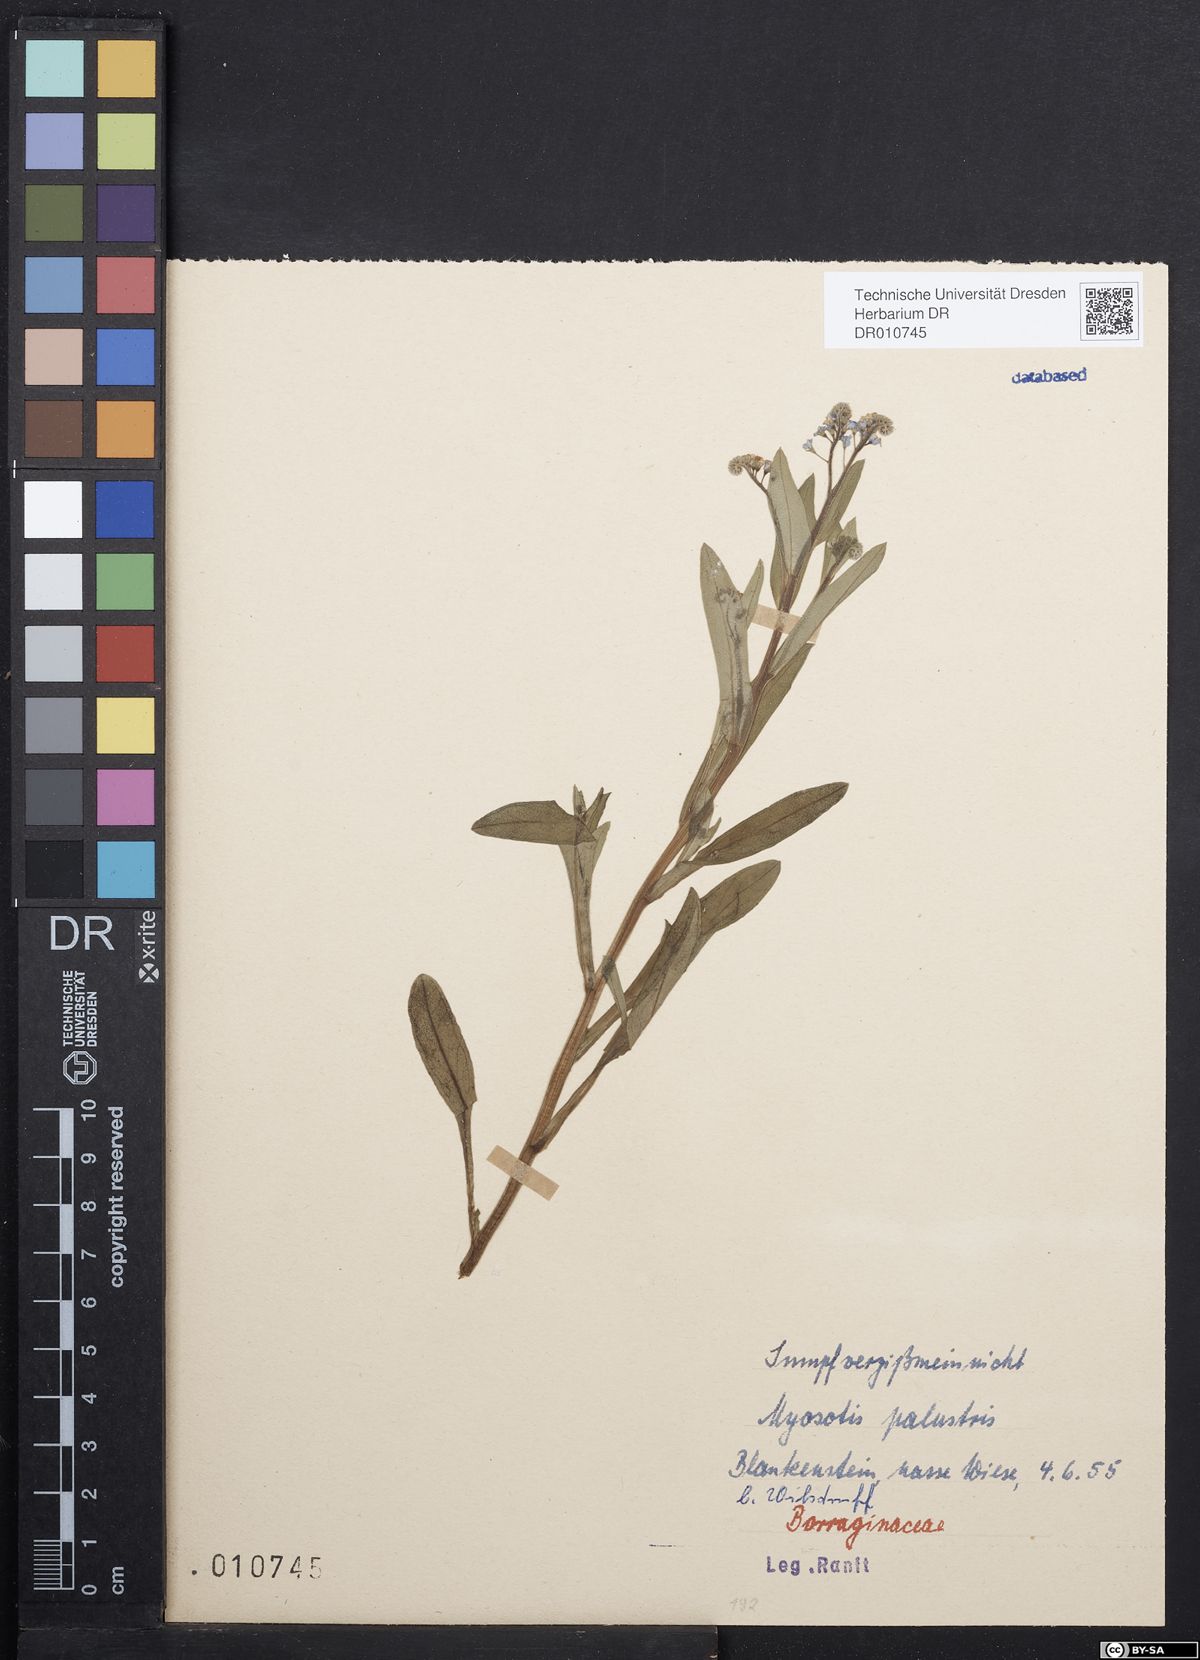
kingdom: Plantae
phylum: Tracheophyta
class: Magnoliopsida
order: Boraginales
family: Boraginaceae
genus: Myosotis
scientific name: Myosotis scorpioides
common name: Water forget-me-not
